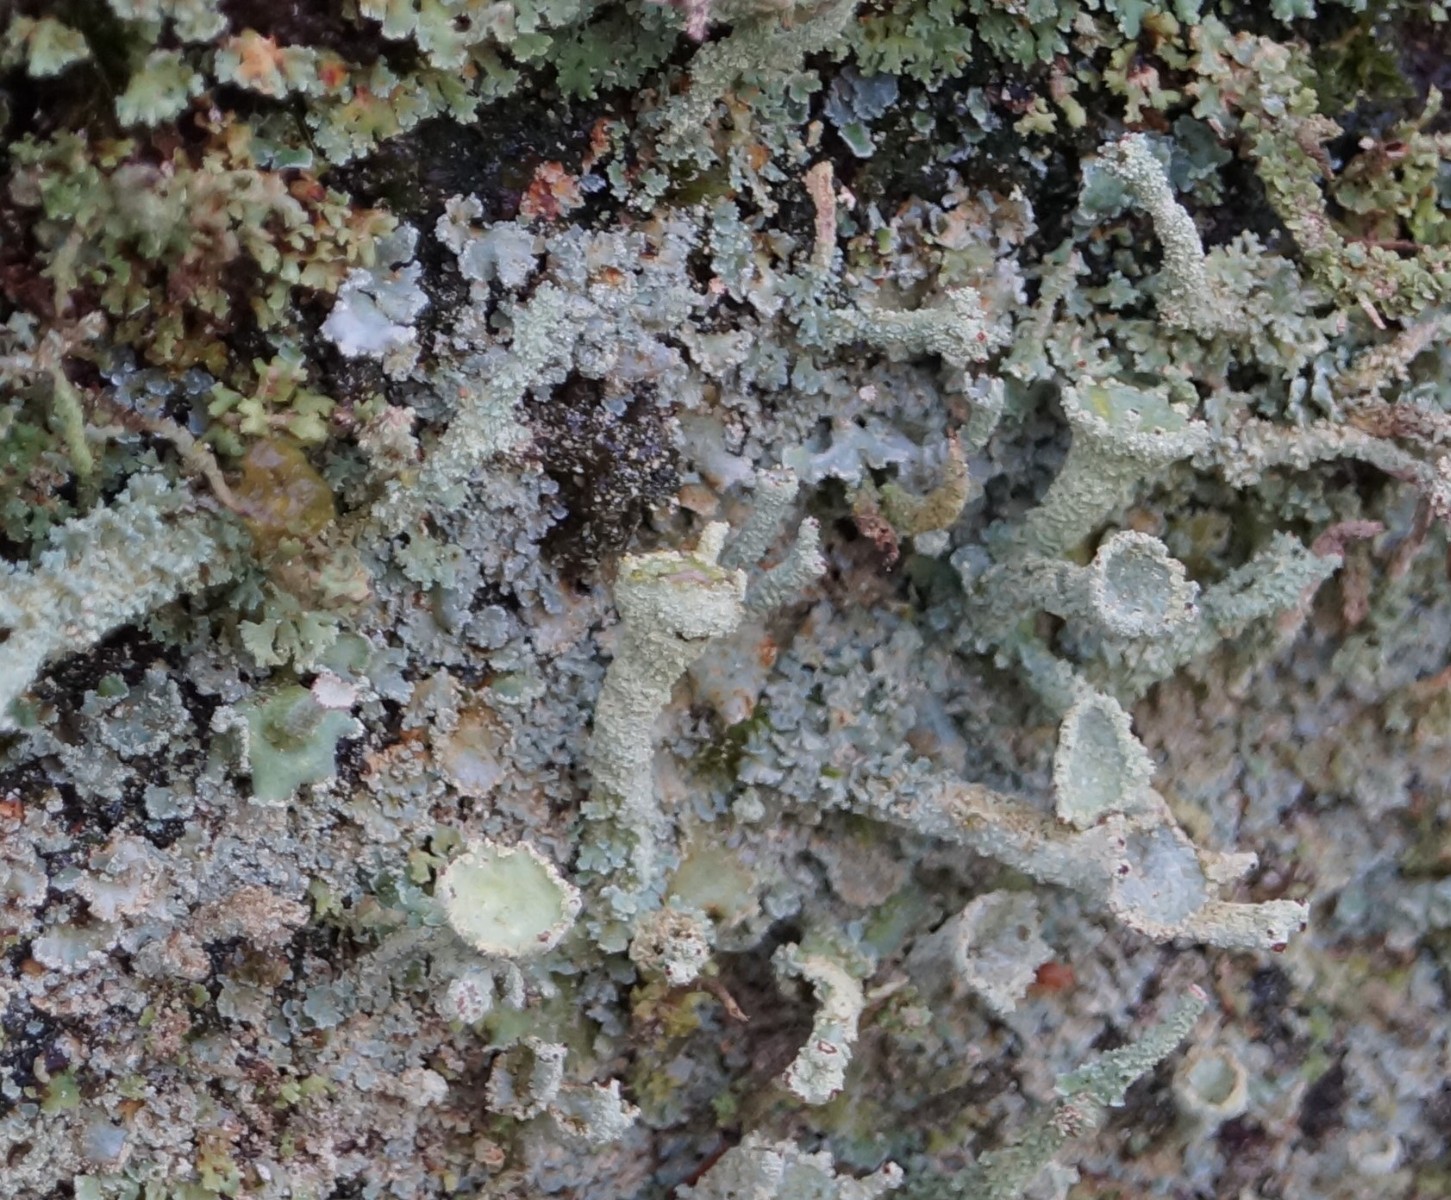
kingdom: Fungi
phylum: Ascomycota
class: Lecanoromycetes
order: Lecanorales
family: Cladoniaceae
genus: Cladonia
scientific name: Cladonia digitata
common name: finger-bægerlav
